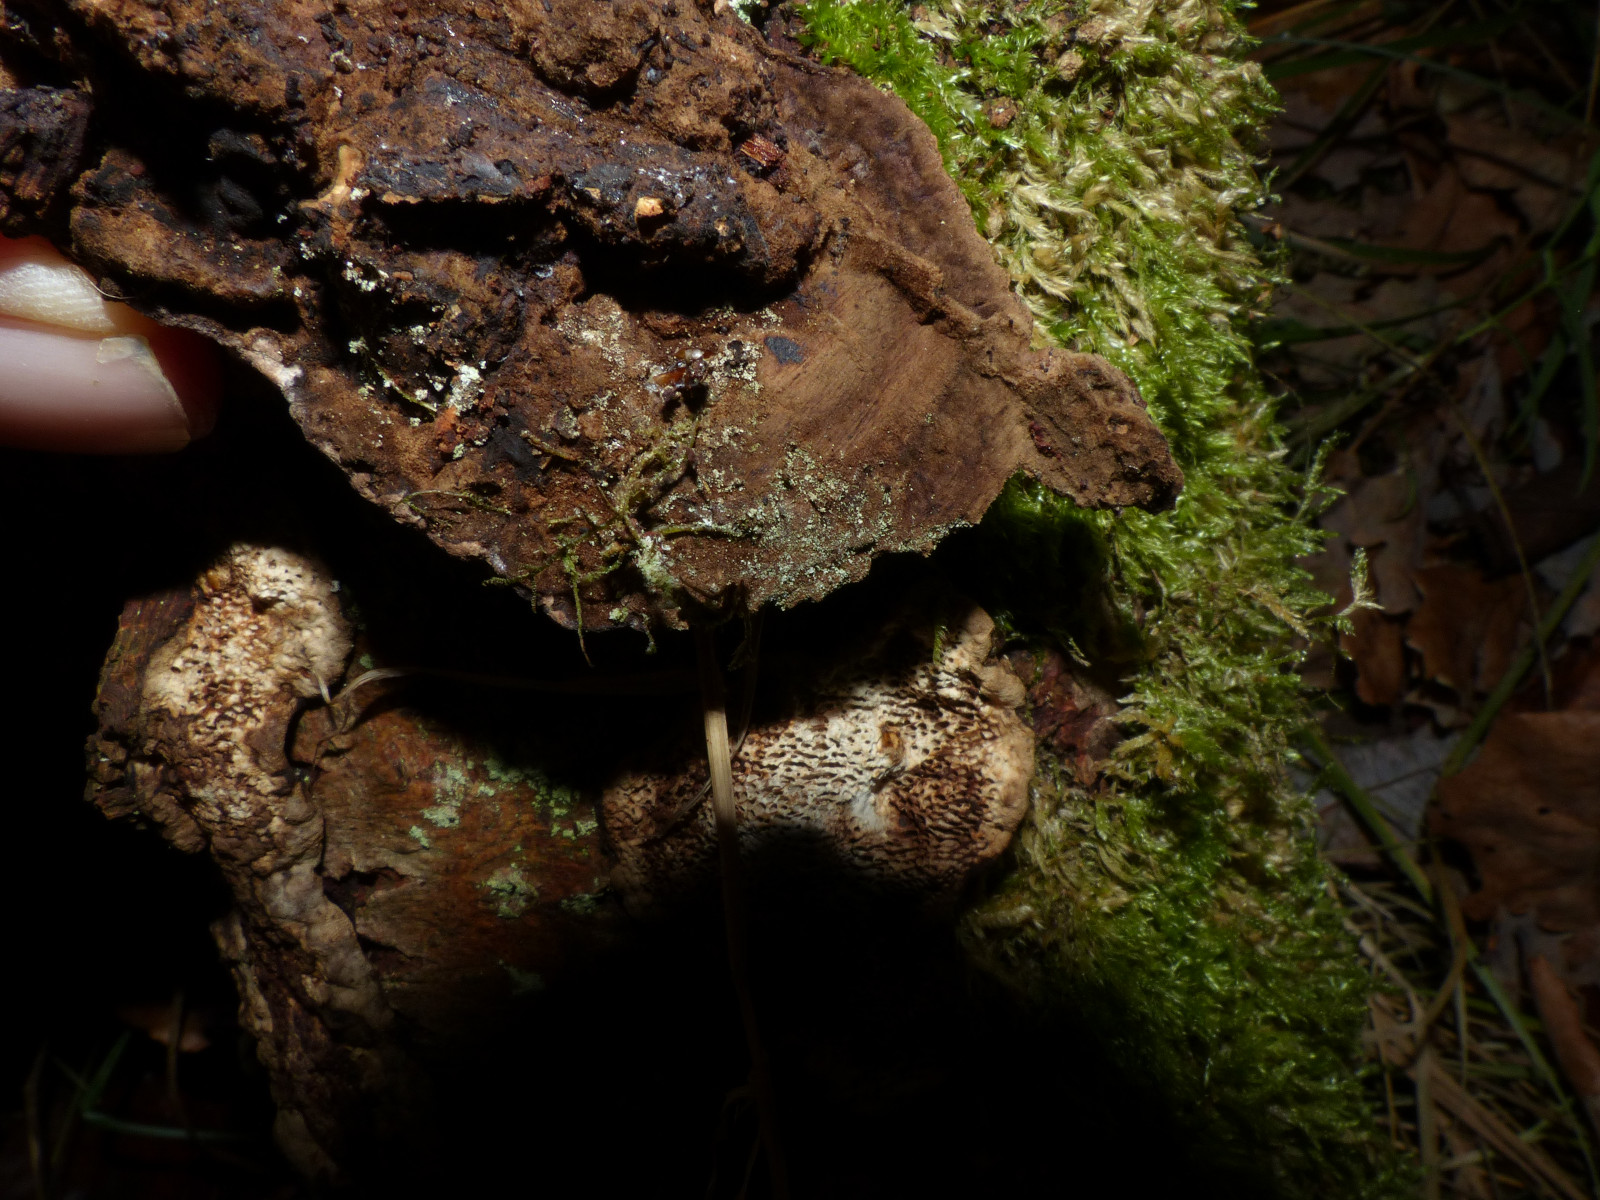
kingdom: Fungi
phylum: Basidiomycota
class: Agaricomycetes
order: Polyporales
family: Polyporaceae
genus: Podofomes
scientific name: Podofomes mollis
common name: blød begporesvamp
